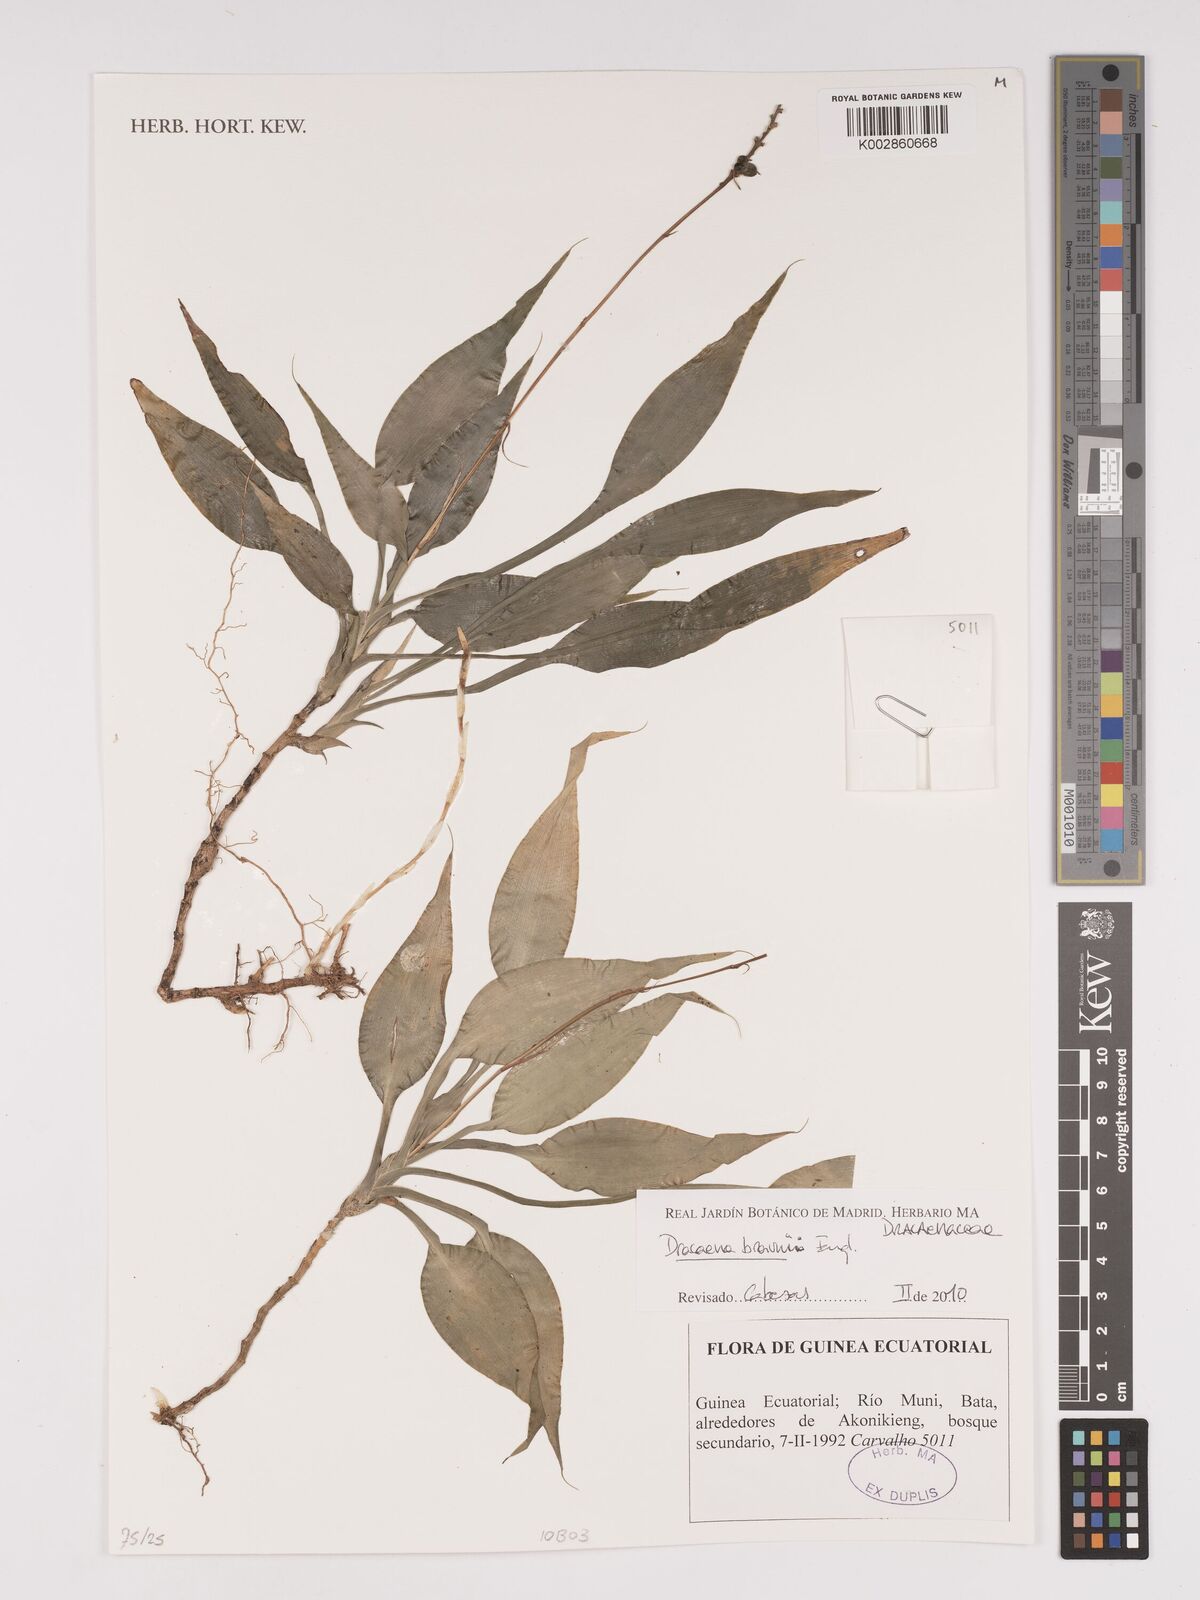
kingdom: Plantae
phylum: Tracheophyta
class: Liliopsida
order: Asparagales
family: Asparagaceae
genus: Dracaena
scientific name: Dracaena braunii
